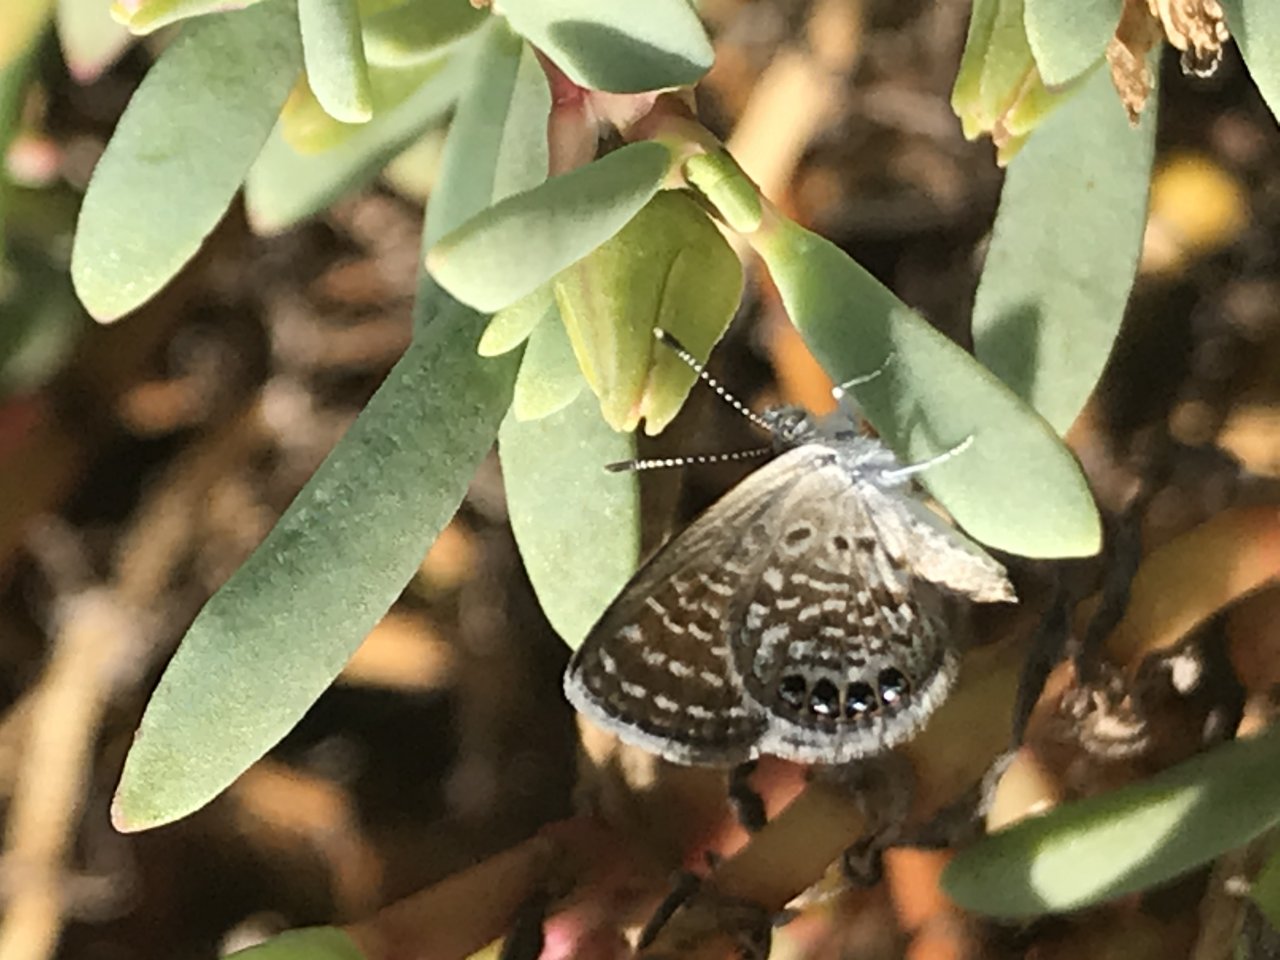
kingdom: Animalia
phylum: Arthropoda
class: Insecta
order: Lepidoptera
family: Lycaenidae
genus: Brephidium
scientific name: Brephidium exilis
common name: Western Pygmy-Blue
